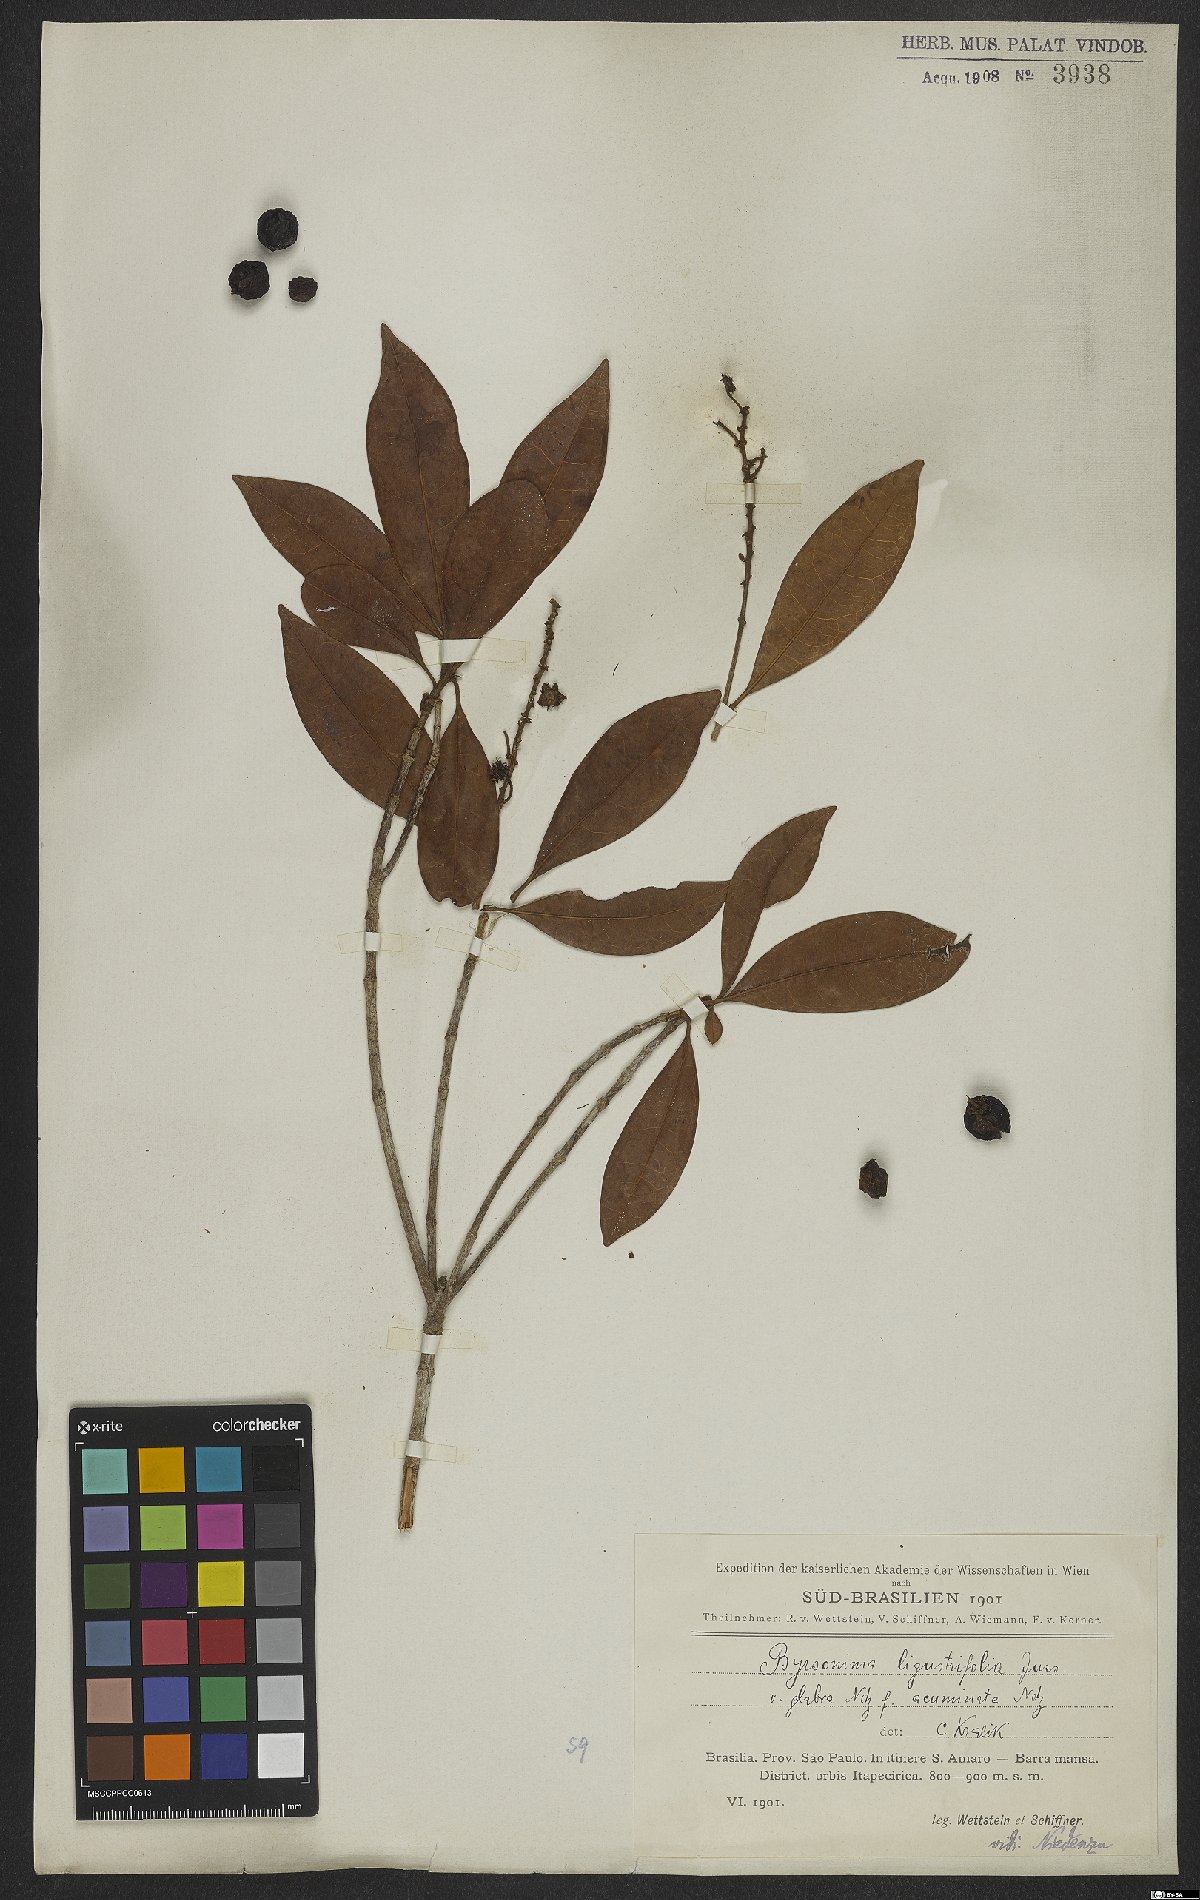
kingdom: Plantae
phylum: Tracheophyta
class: Magnoliopsida
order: Malpighiales
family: Malpighiaceae
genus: Byrsonima
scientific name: Byrsonima ligustrifolia
